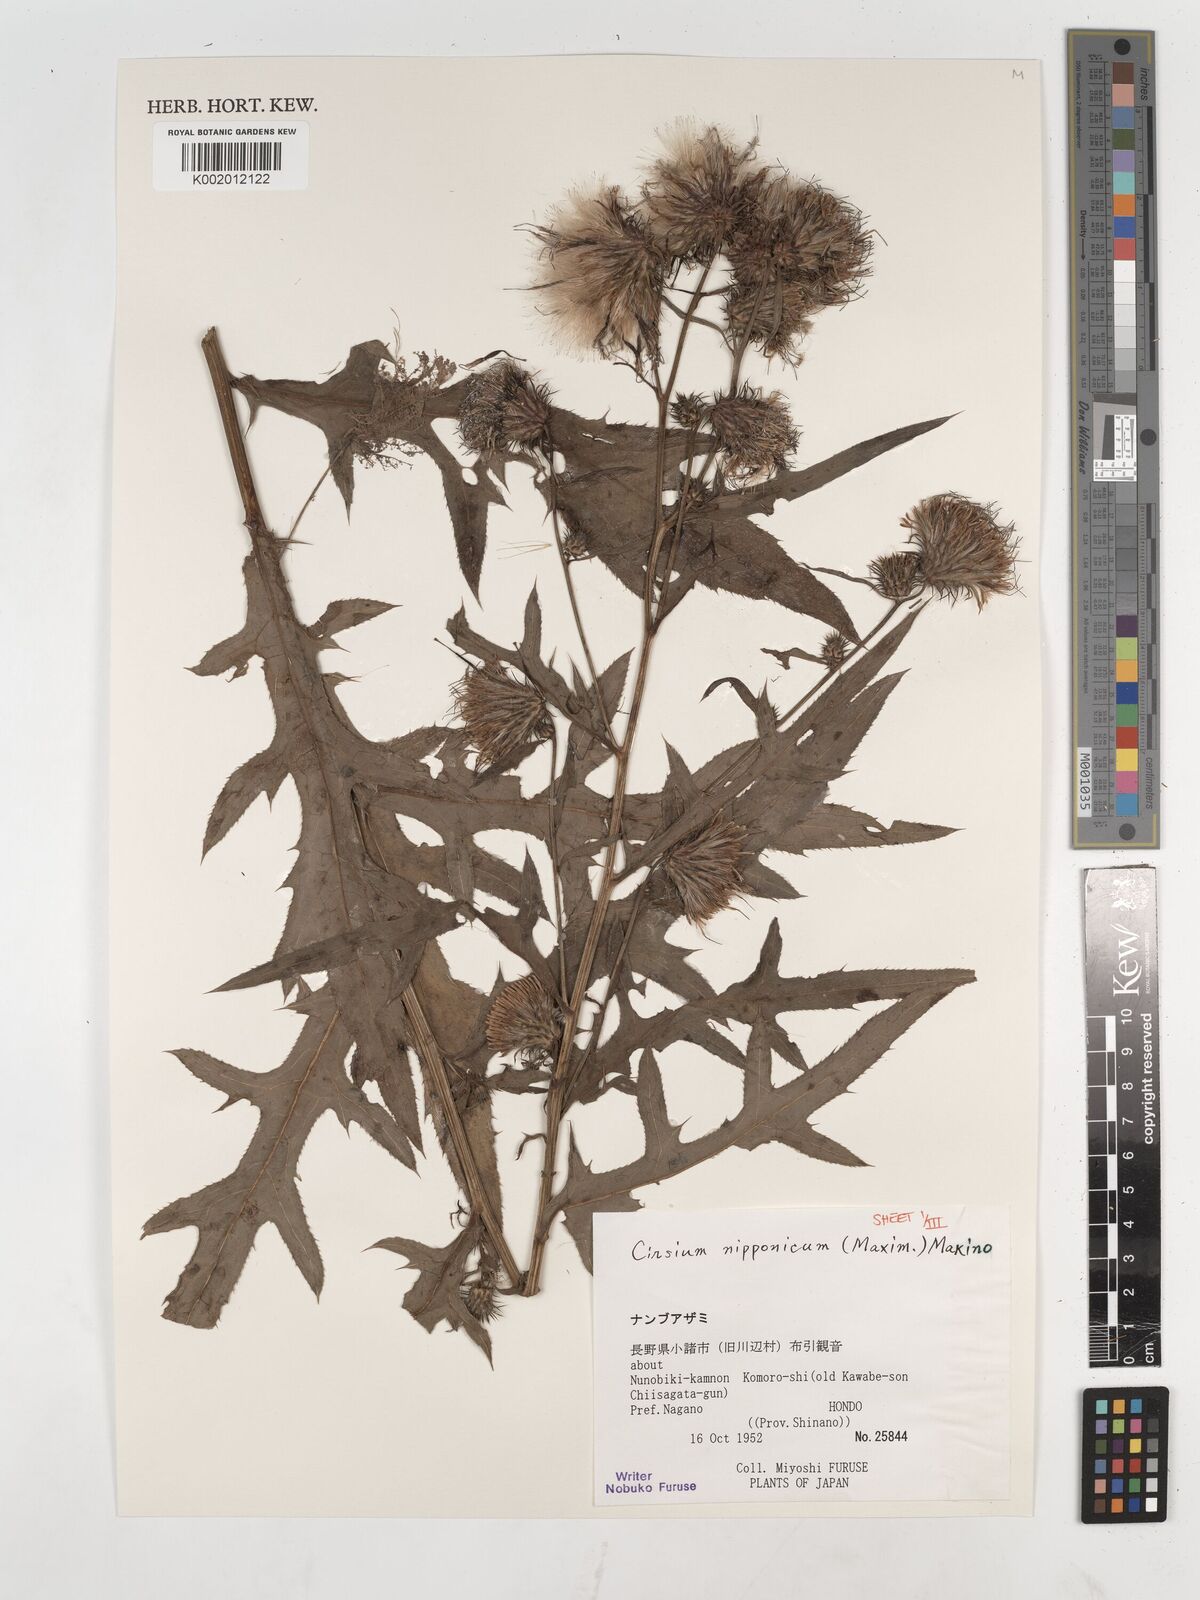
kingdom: Plantae
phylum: Tracheophyta
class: Magnoliopsida
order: Asterales
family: Asteraceae
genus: Cirsium
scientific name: Cirsium nipponicum
